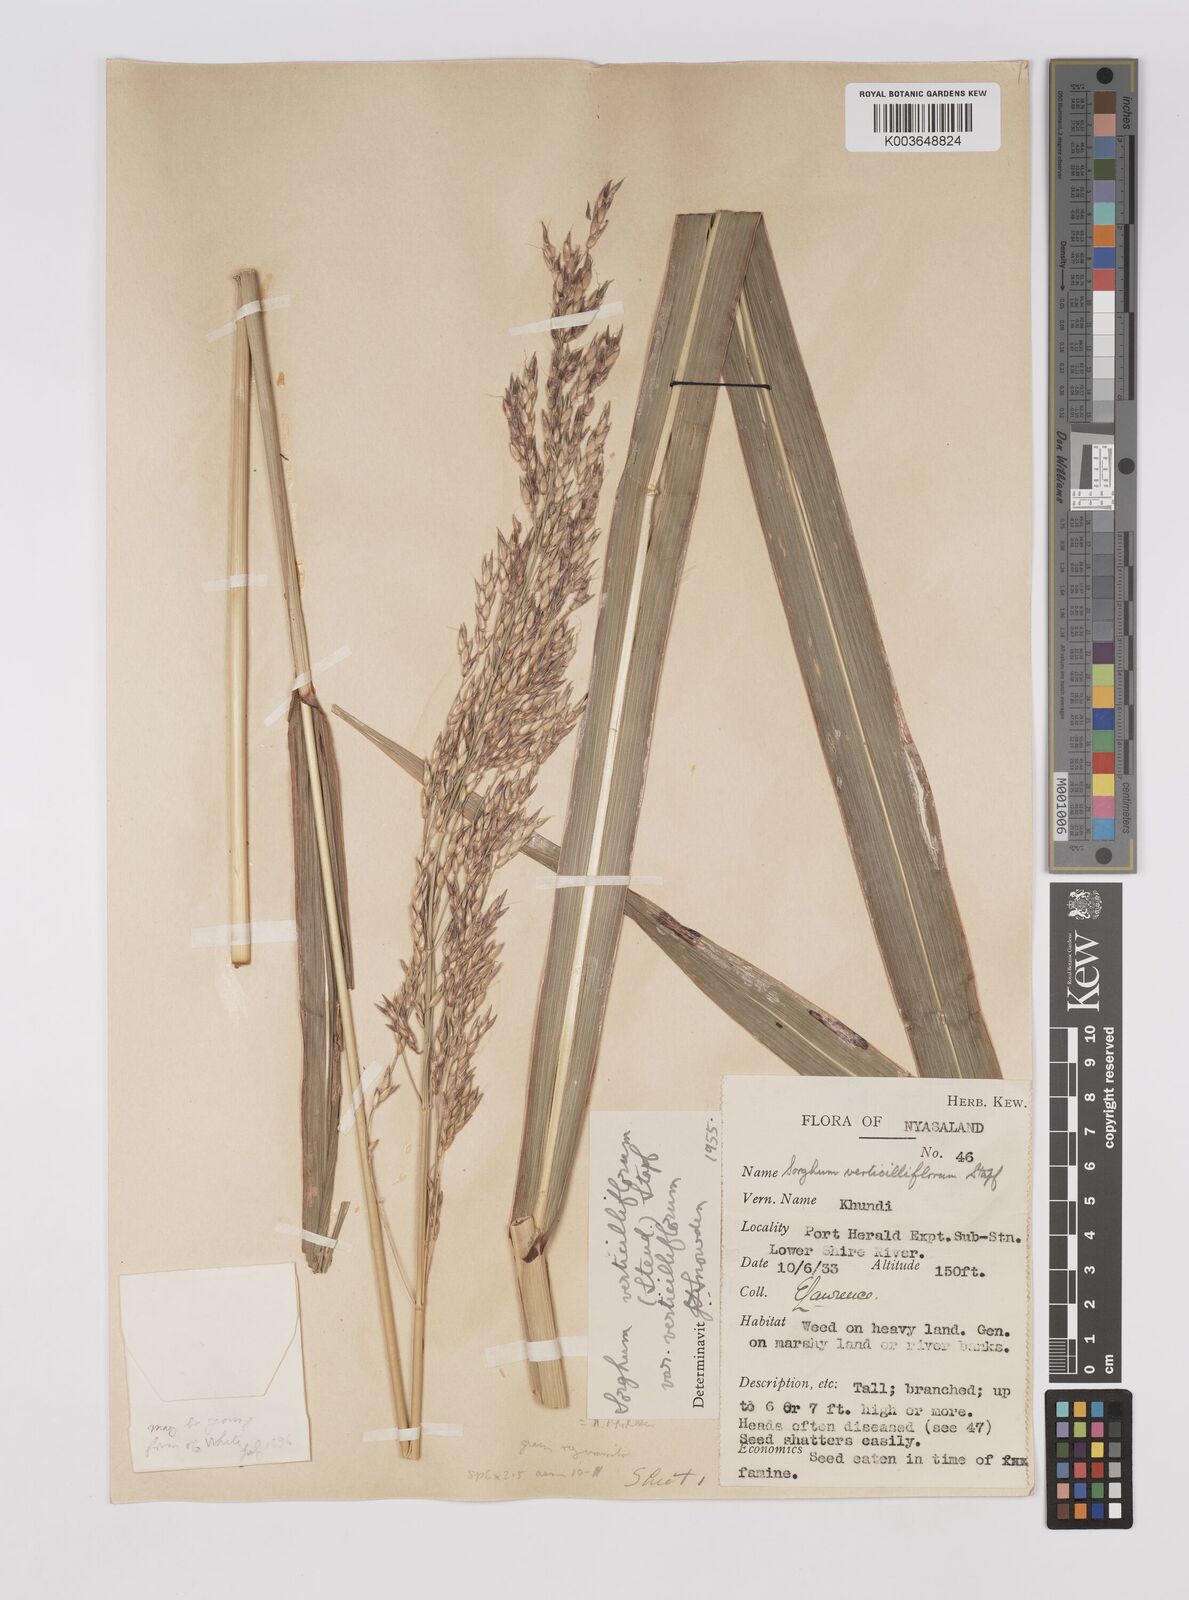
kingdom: Plantae
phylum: Tracheophyta
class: Liliopsida
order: Poales
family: Poaceae
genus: Sorghum
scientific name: Sorghum arundinaceum
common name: Sorghum
